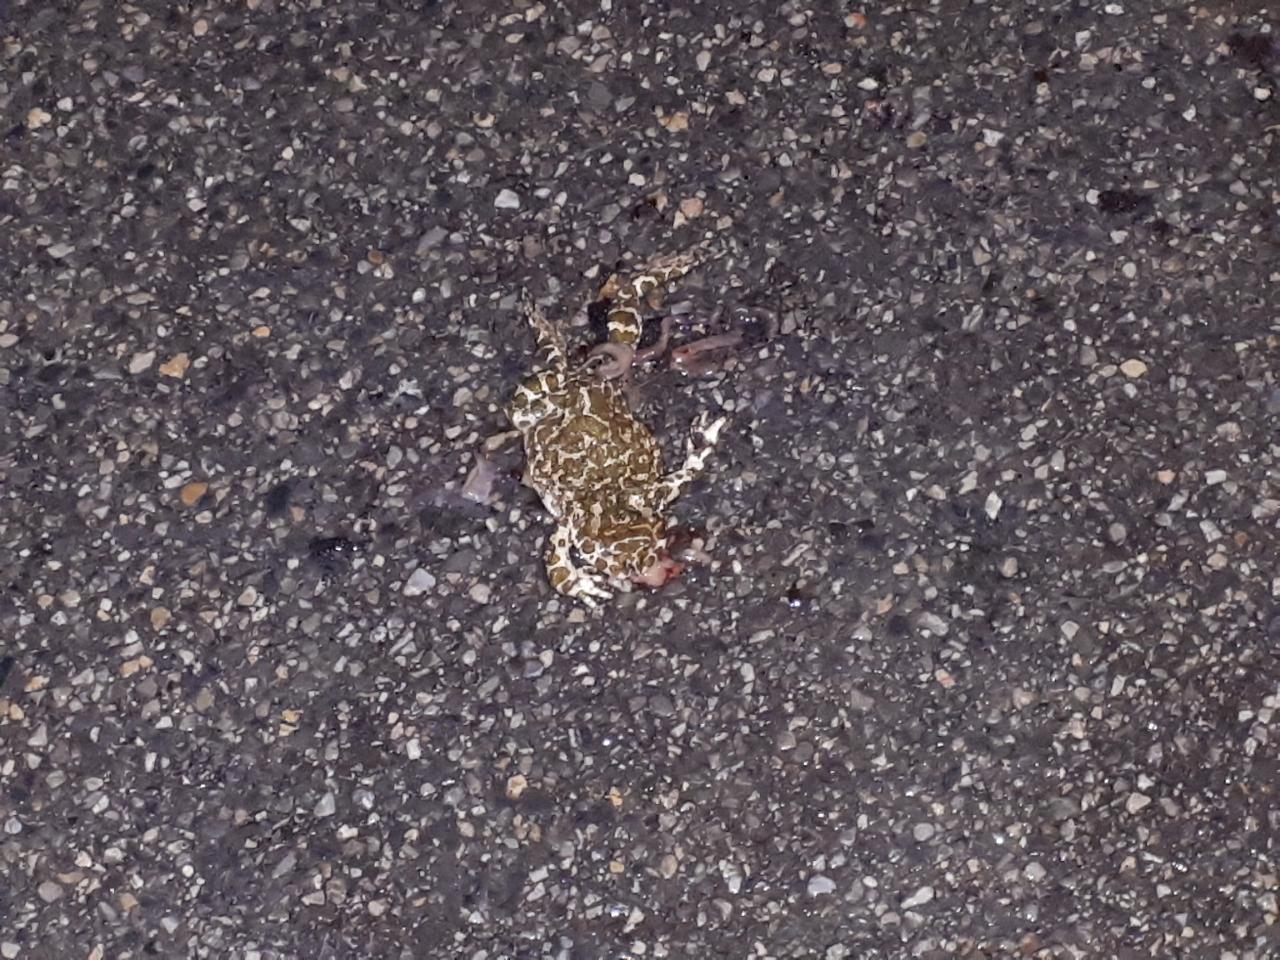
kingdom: Animalia
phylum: Chordata
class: Amphibia
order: Anura
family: Bufonidae
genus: Bufotes
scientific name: Bufotes viridis
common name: European green toad
